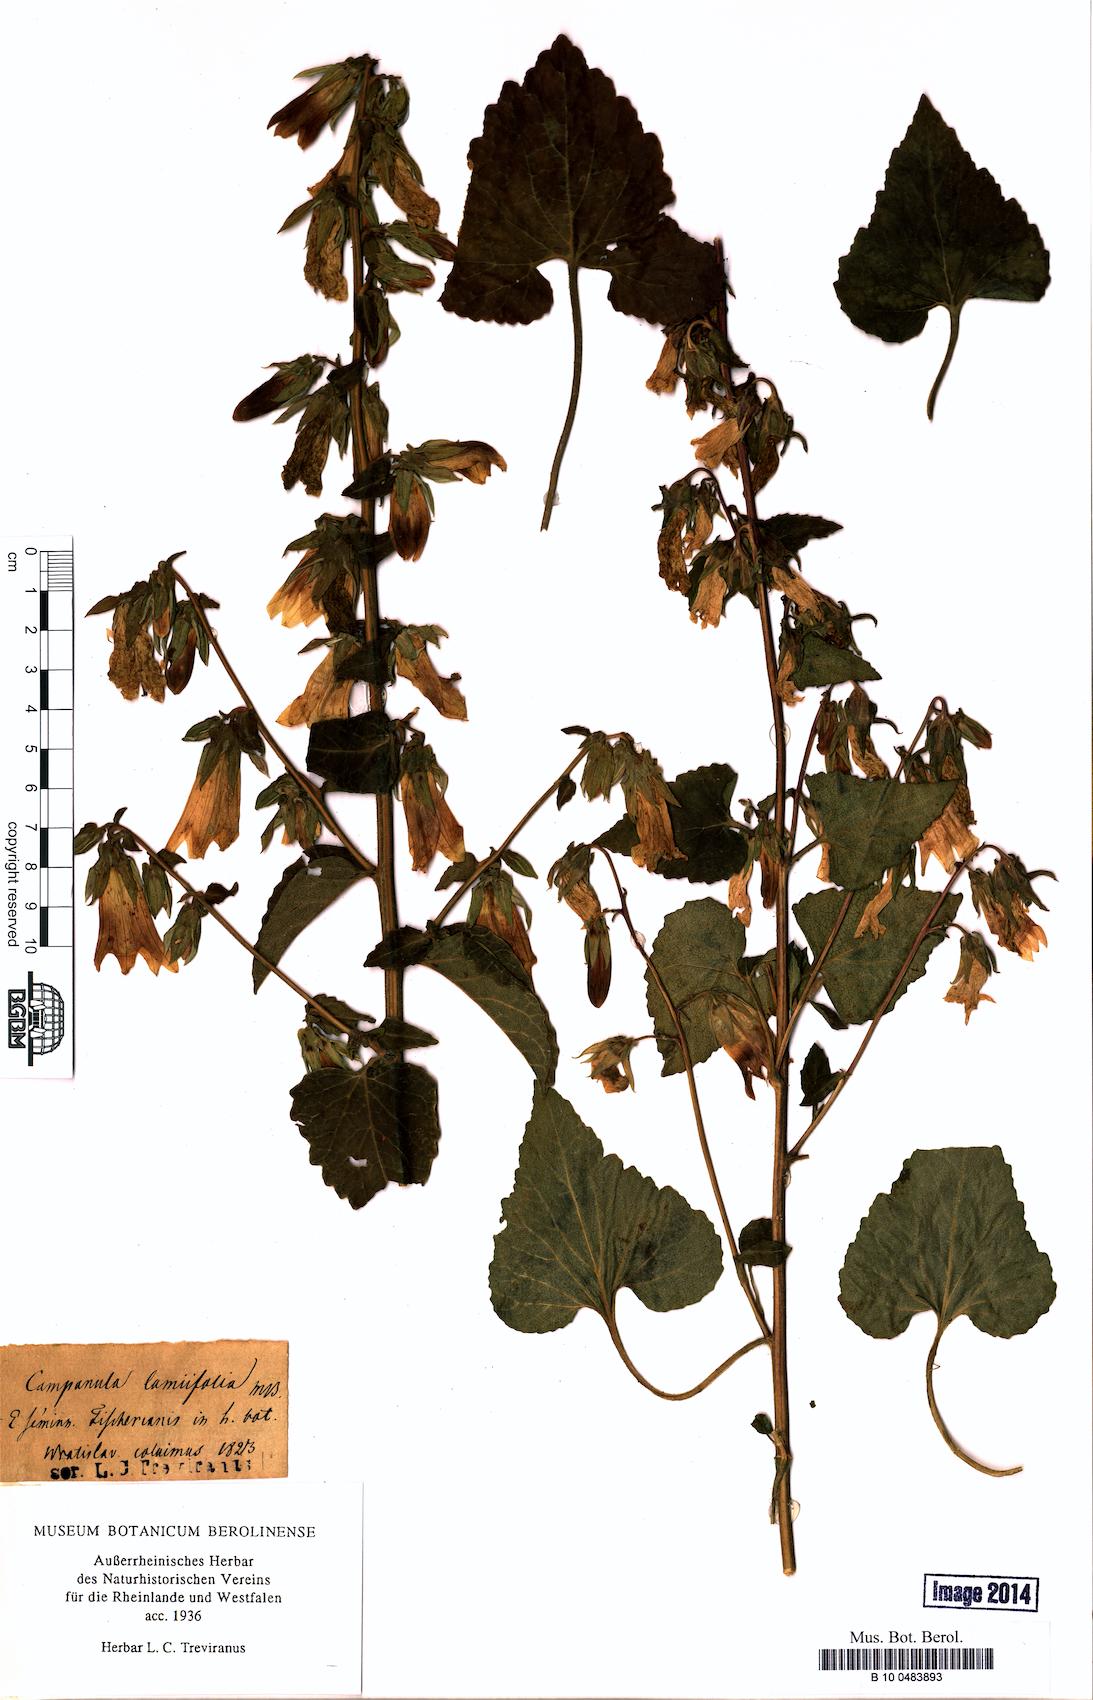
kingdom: Plantae
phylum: Tracheophyta
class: Magnoliopsida
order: Asterales
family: Campanulaceae
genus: Campanula
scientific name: Campanula alliariifolia
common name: Cornish bellflower
